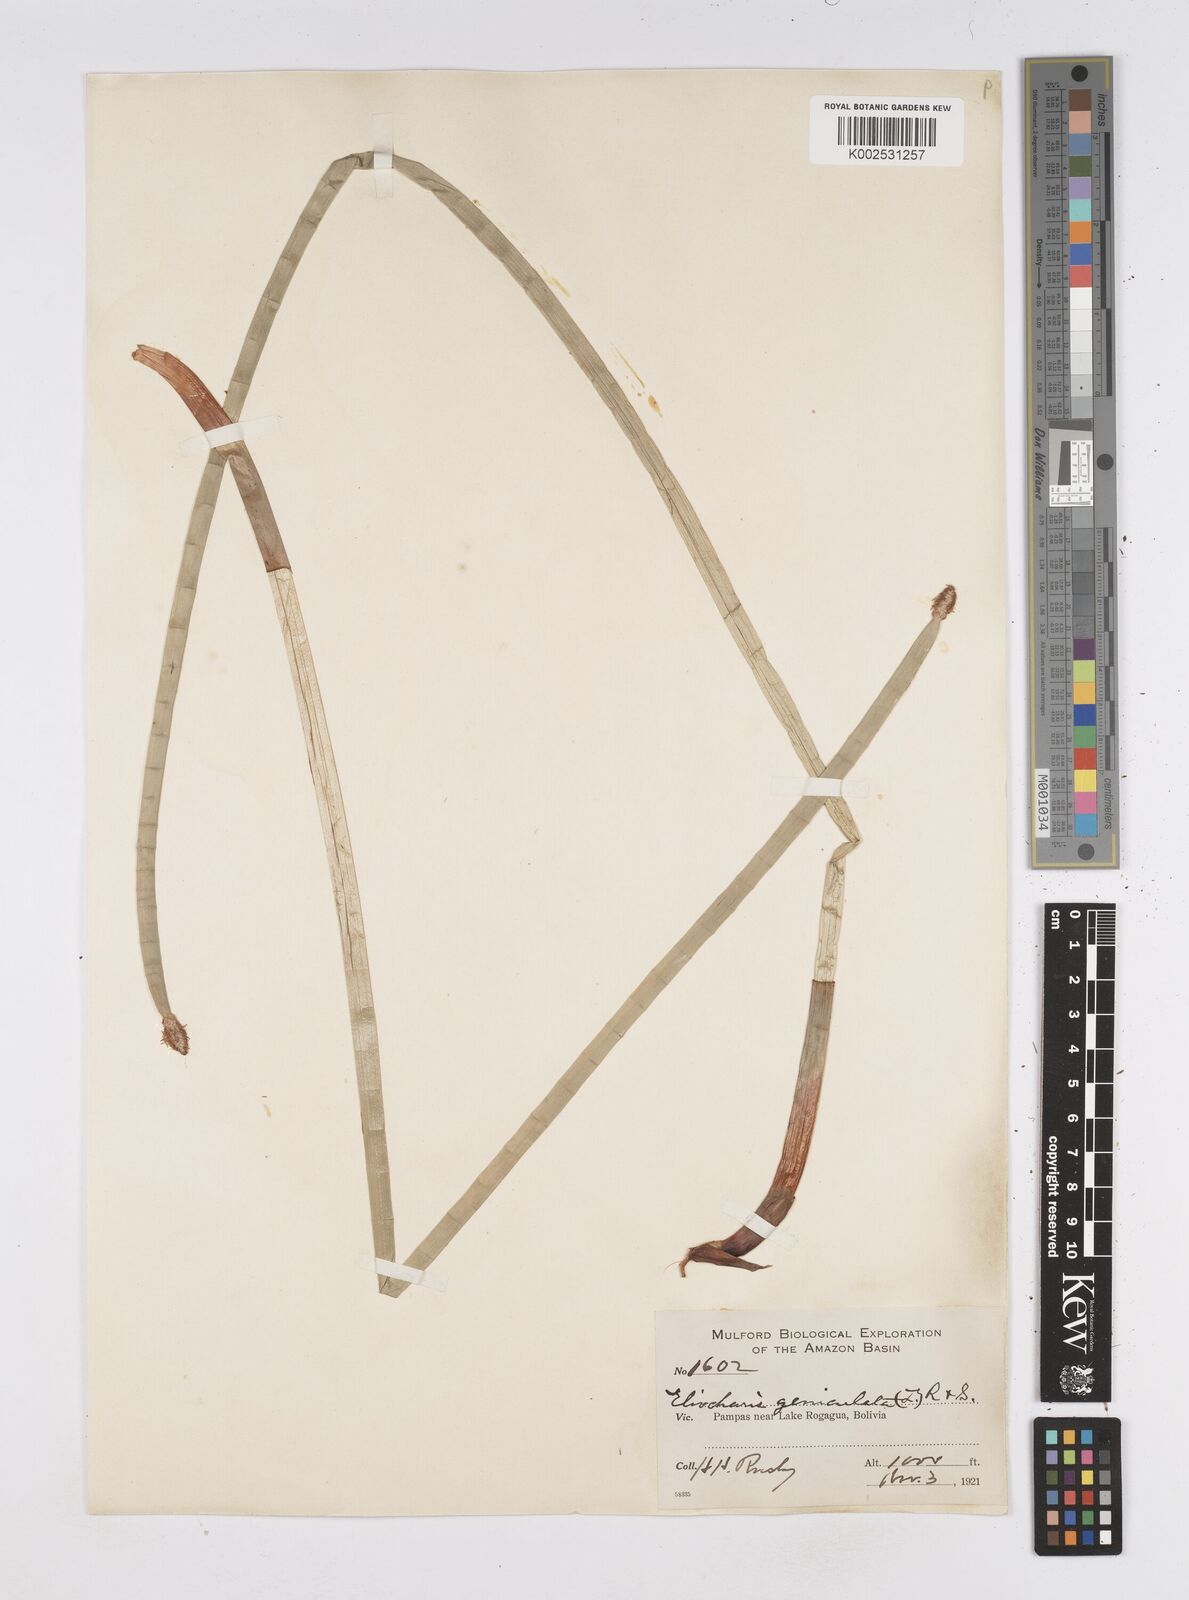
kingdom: Plantae
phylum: Tracheophyta
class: Liliopsida
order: Poales
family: Cyperaceae
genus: Eleocharis
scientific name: Eleocharis elegans
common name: Elegant spike-rush
